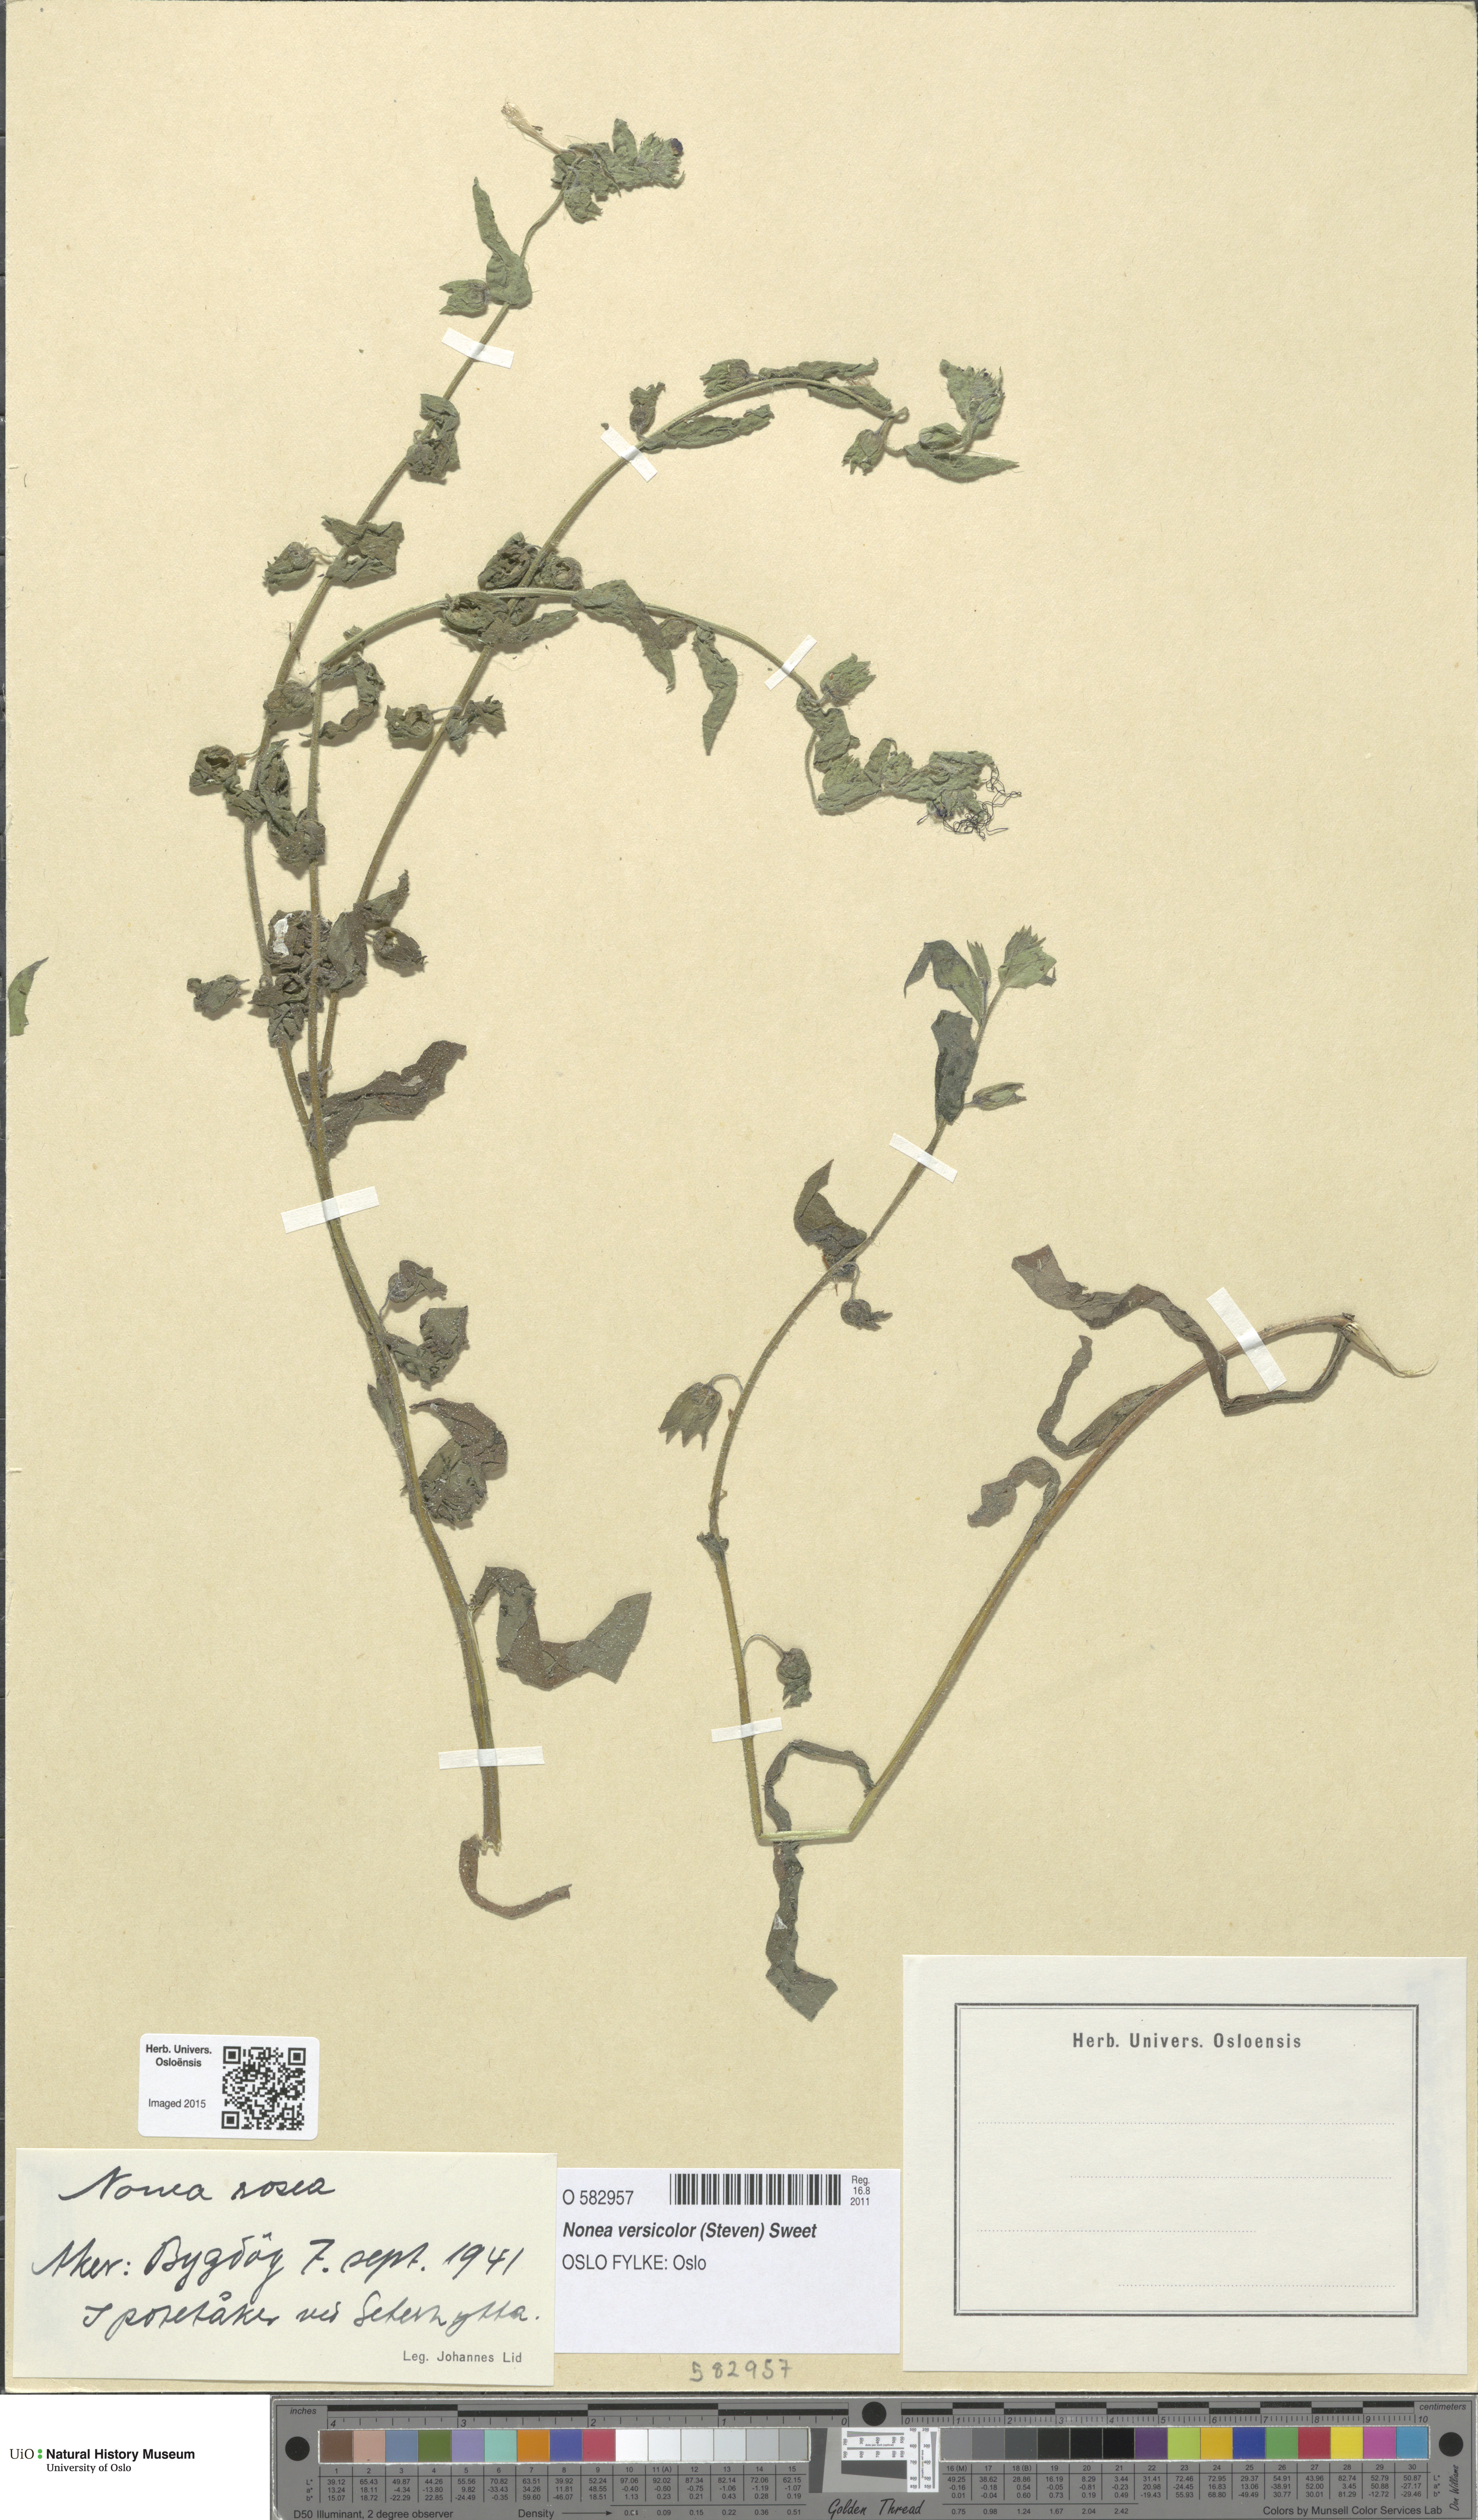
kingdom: Plantae
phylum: Tracheophyta
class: Magnoliopsida
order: Boraginales
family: Boraginaceae
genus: Nonea
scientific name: Nonea versicolor
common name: Varied monkswort
